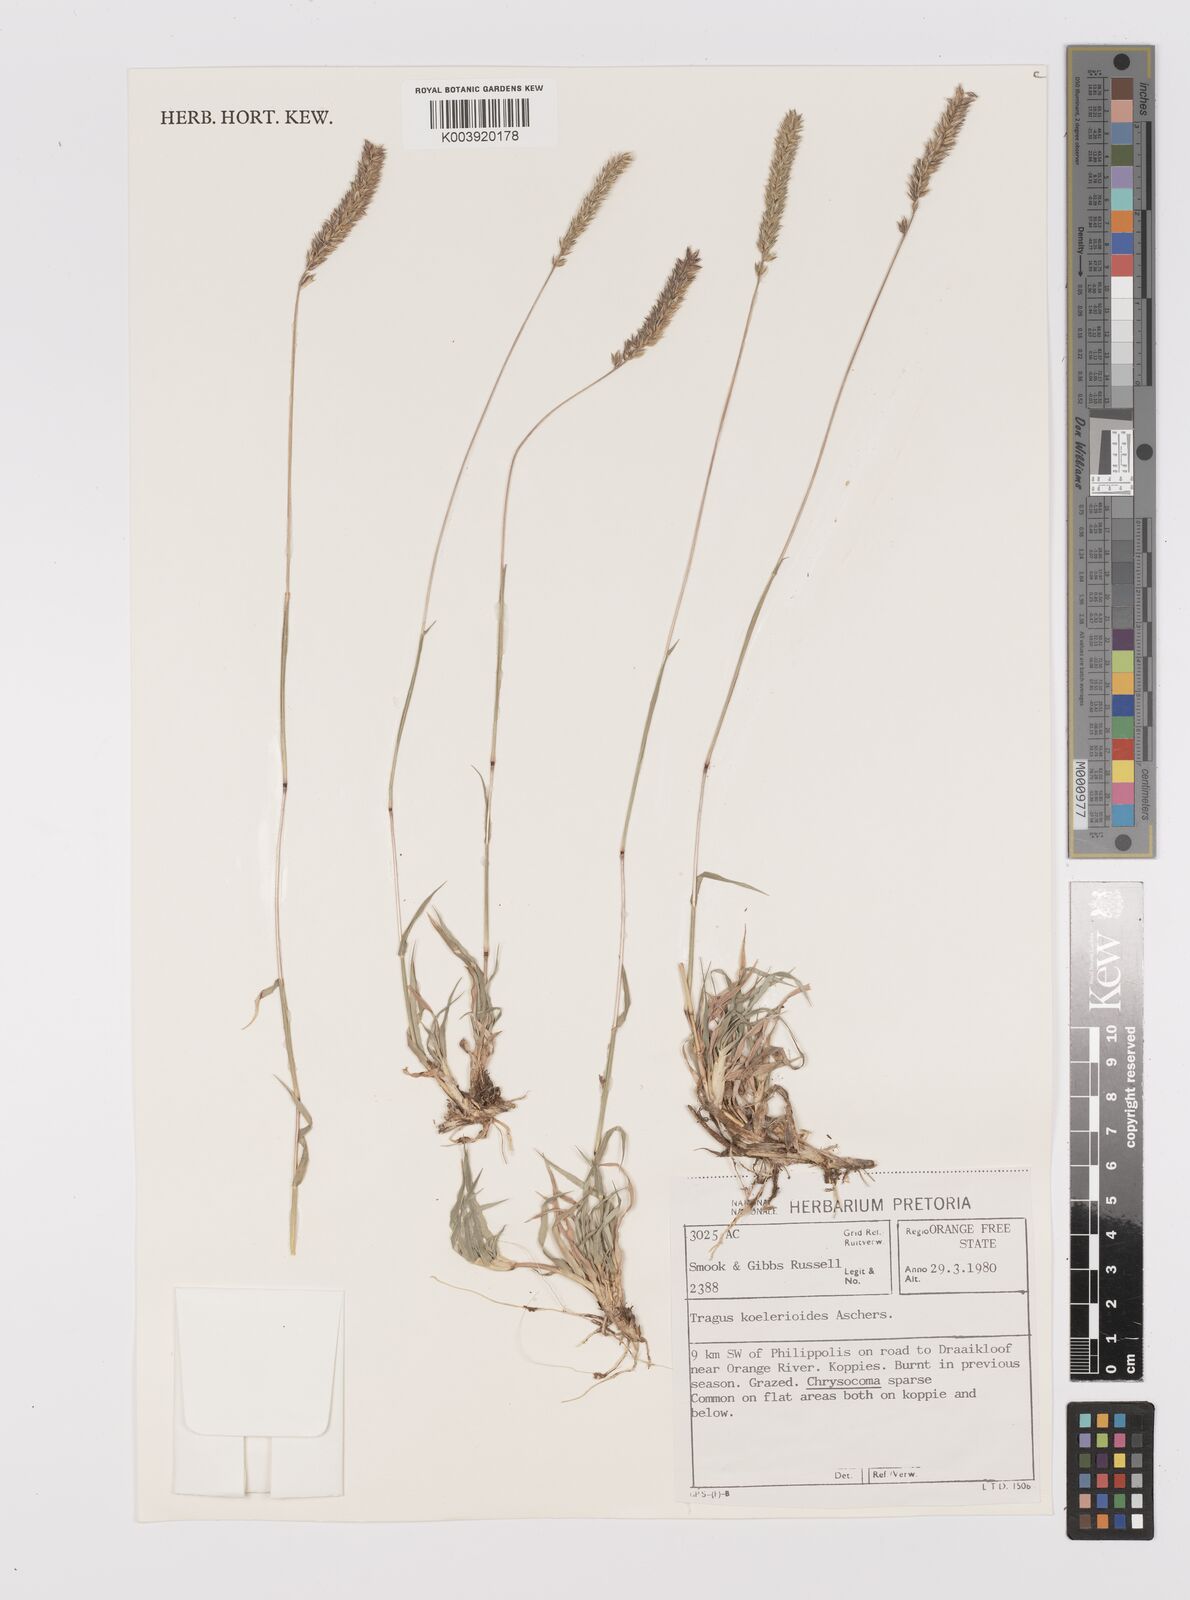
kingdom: Plantae
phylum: Tracheophyta
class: Liliopsida
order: Poales
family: Poaceae
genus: Tragus
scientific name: Tragus koelerioides
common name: Creeping carrot-seed grass
